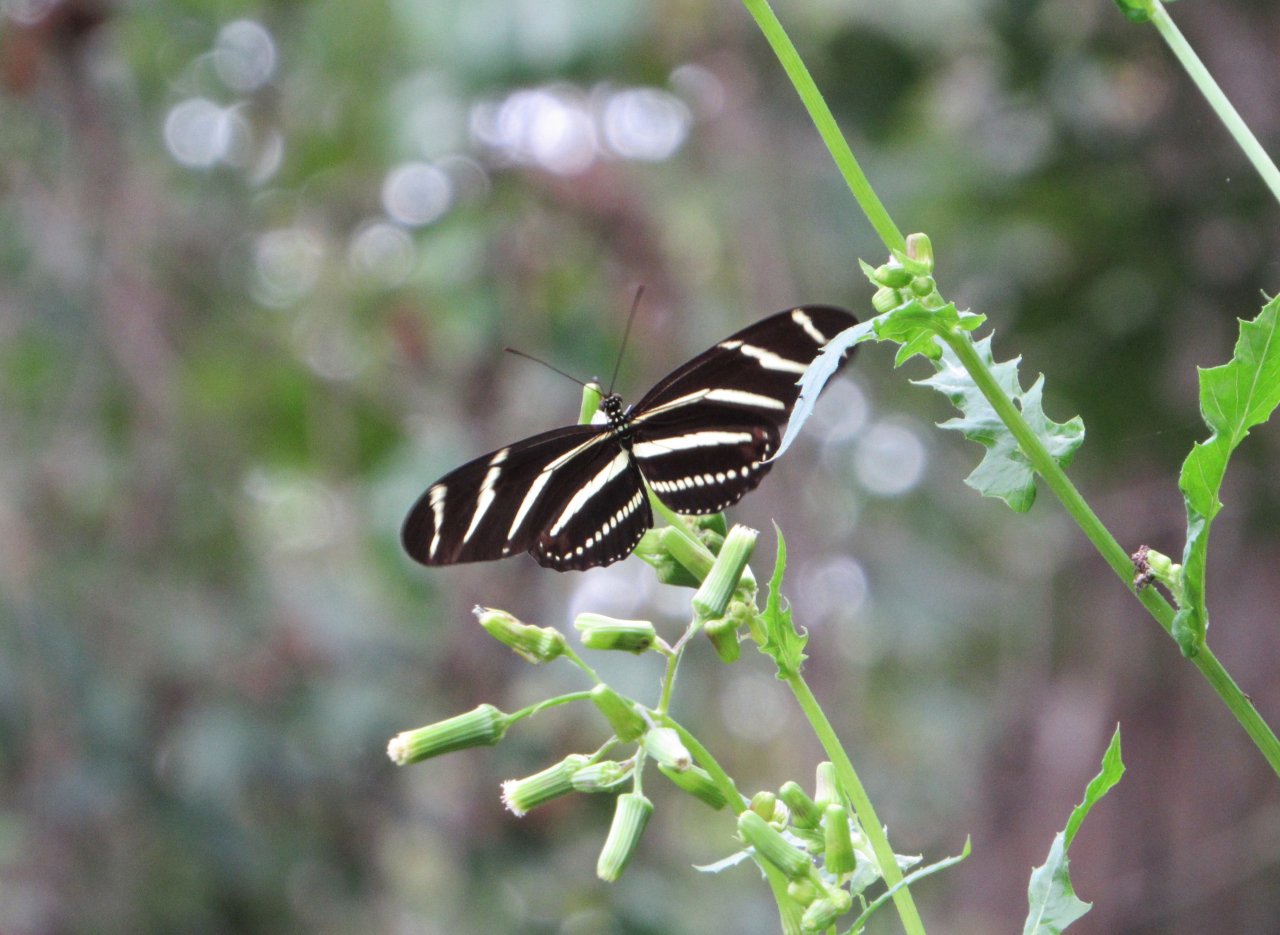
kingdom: Animalia
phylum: Arthropoda
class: Insecta
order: Lepidoptera
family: Nymphalidae
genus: Heliconius
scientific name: Heliconius charithonia
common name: Zebra Longwing
